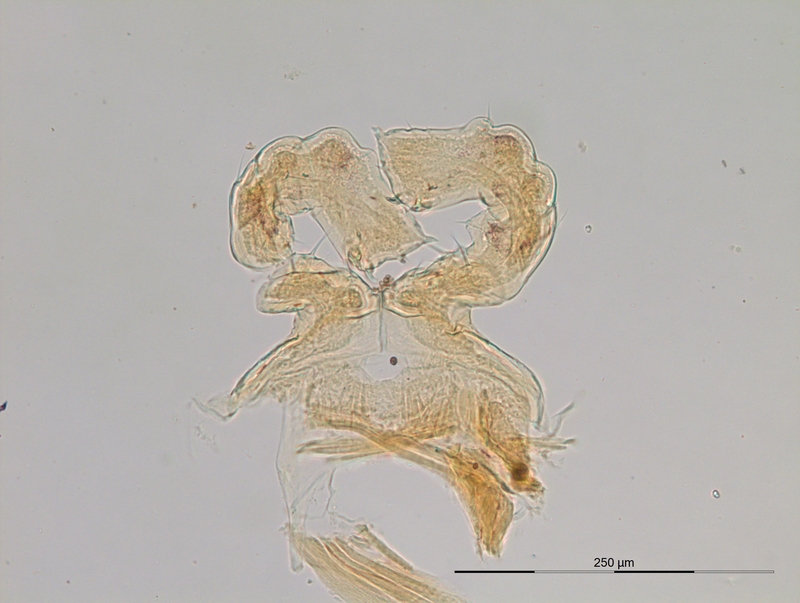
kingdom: Animalia
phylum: Arthropoda
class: Diplopoda
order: Julida
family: Blaniulidae
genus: Nopoiulus
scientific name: Nopoiulus palmatus
